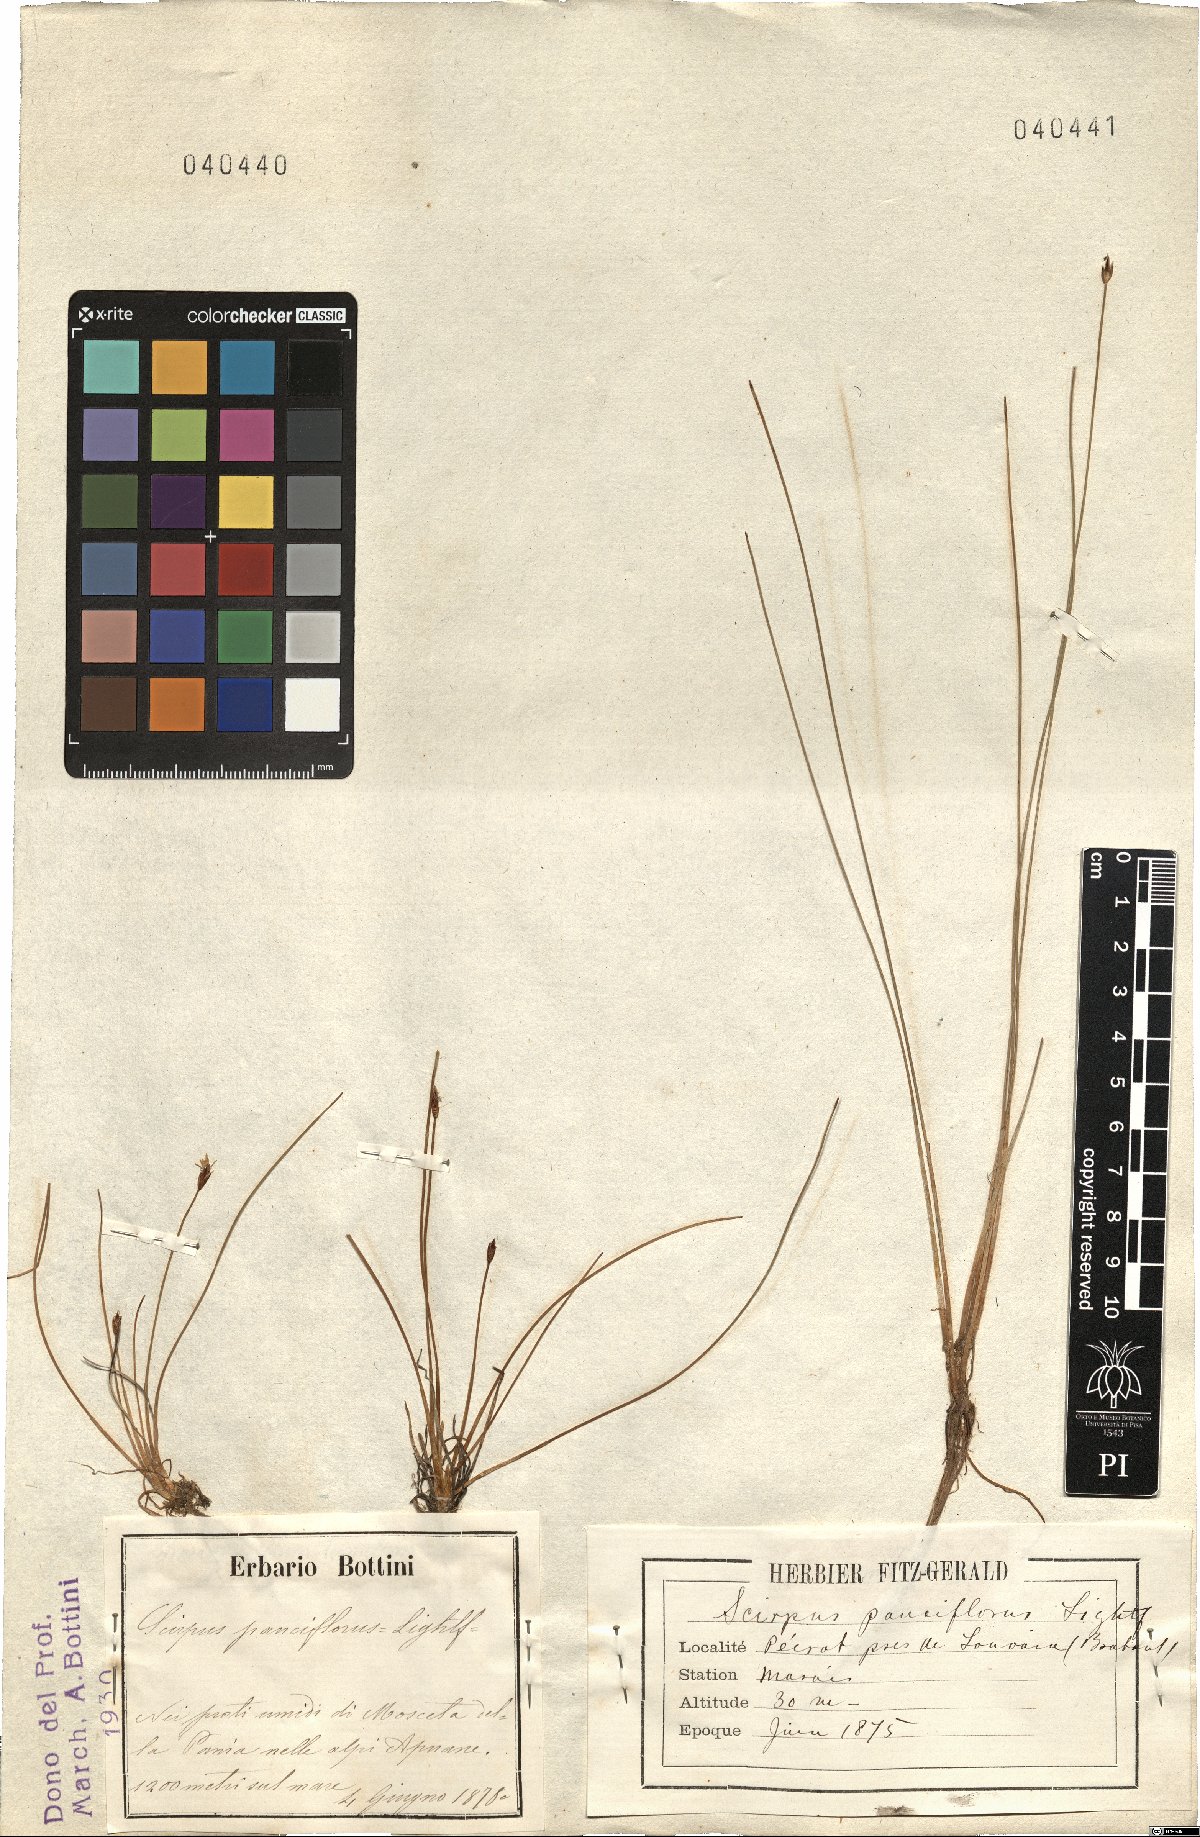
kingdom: Plantae
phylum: Tracheophyta
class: Liliopsida
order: Poales
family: Cyperaceae
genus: Eleocharis
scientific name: Eleocharis quinqueflora
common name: Few-flowered spike-rush
